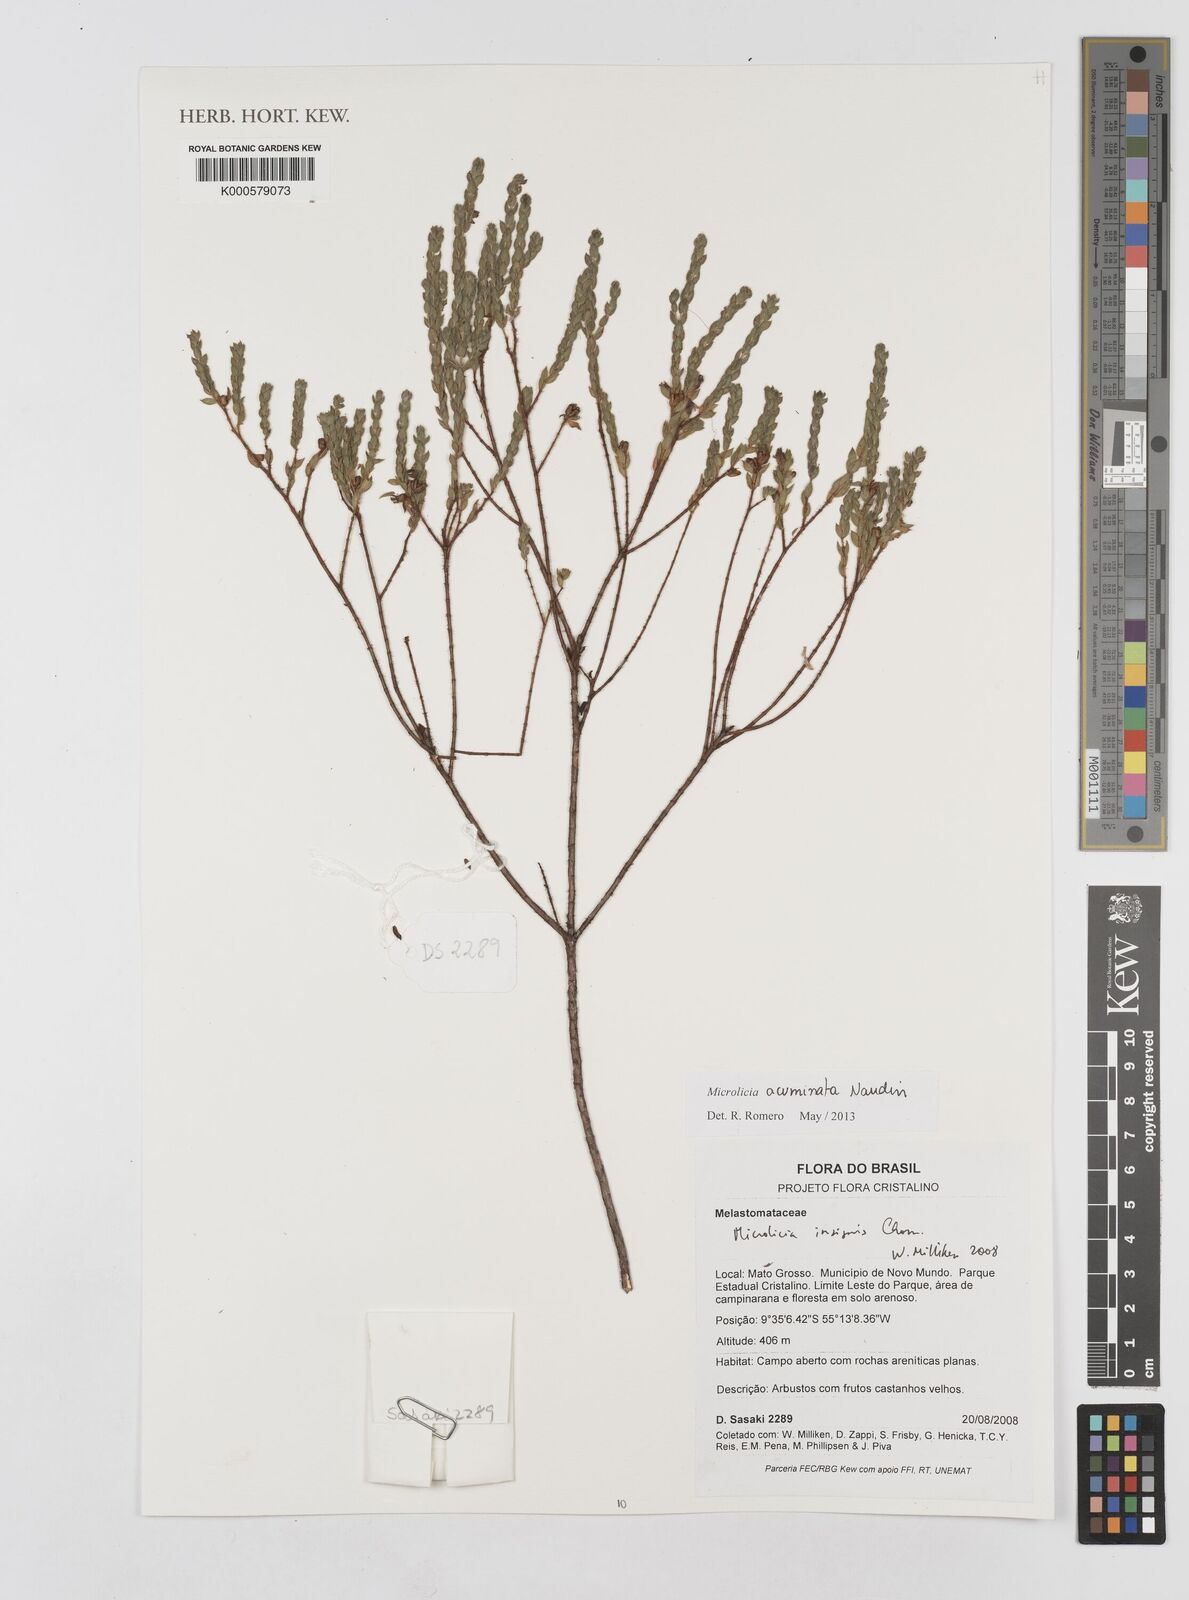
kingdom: Plantae
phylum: Tracheophyta
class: Magnoliopsida
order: Myrtales
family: Melastomataceae
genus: Microlicia
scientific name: Microlicia insignis
